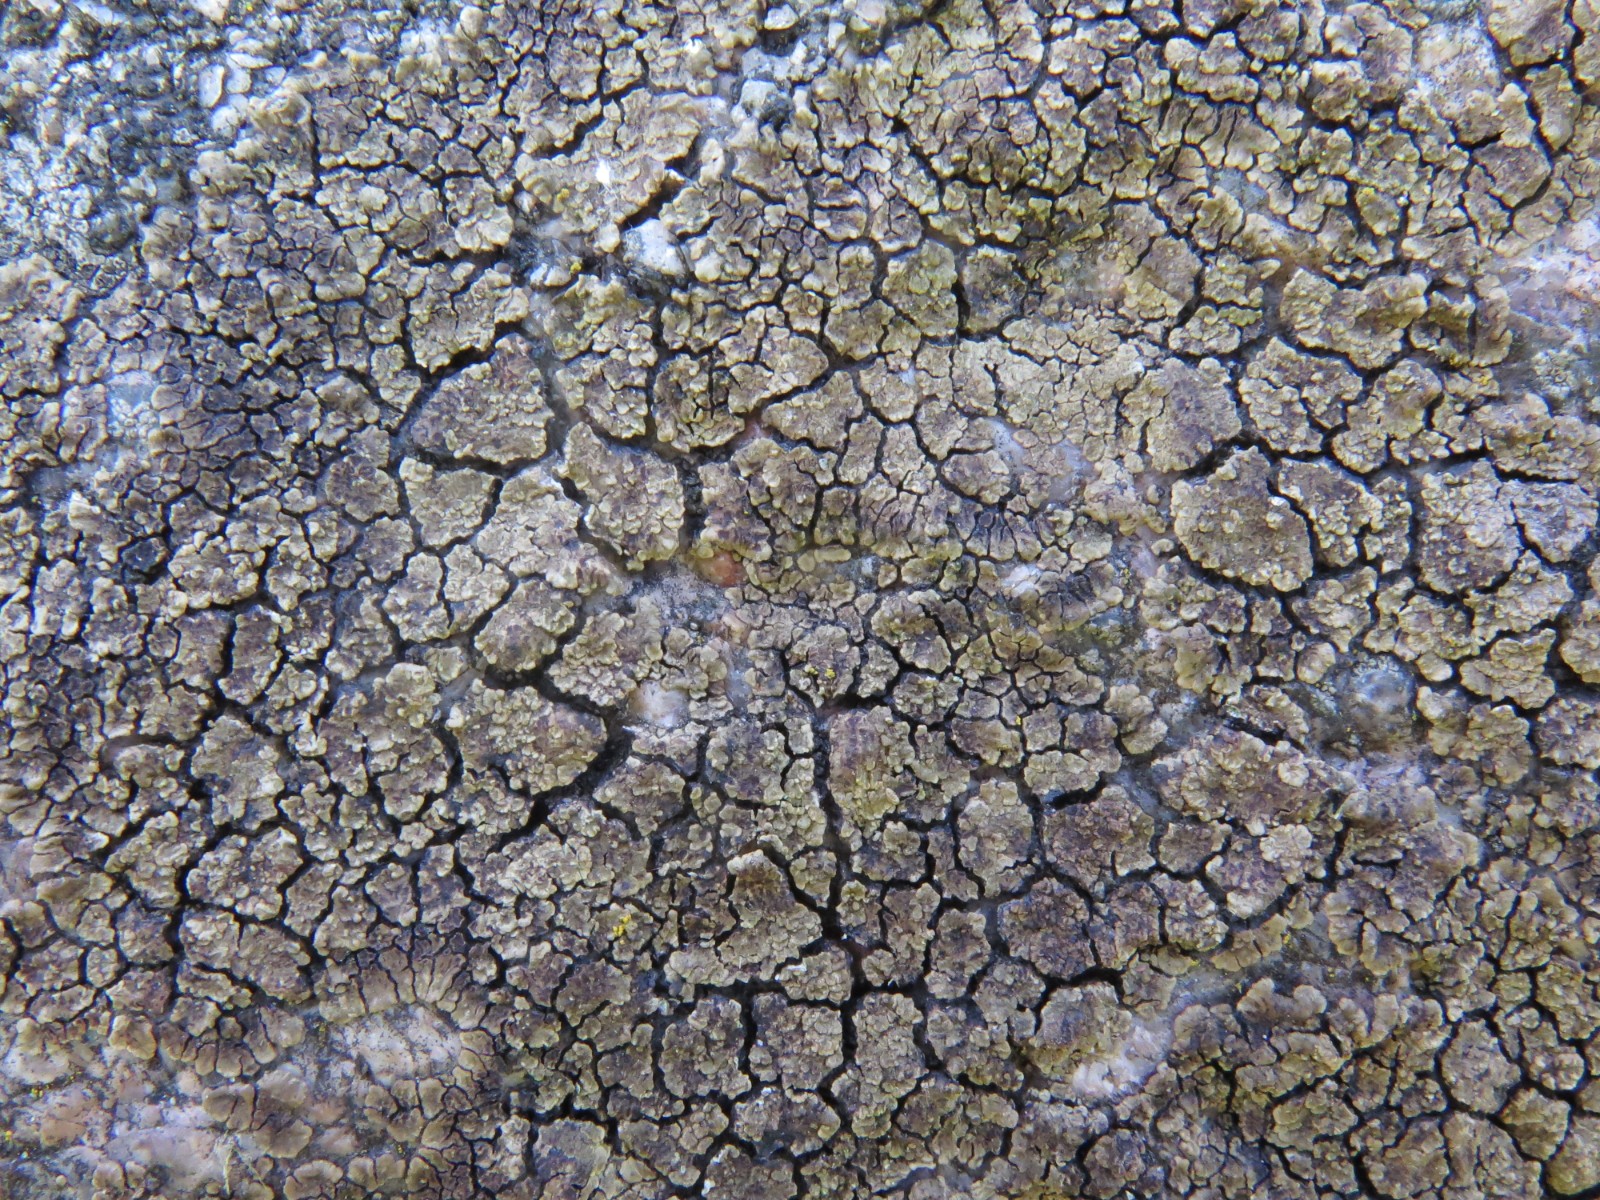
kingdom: Fungi
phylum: Ascomycota
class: Lecanoromycetes
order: Acarosporales
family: Acarosporaceae
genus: Acarospora
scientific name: Acarospora fuscata
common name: brun småsporelav
